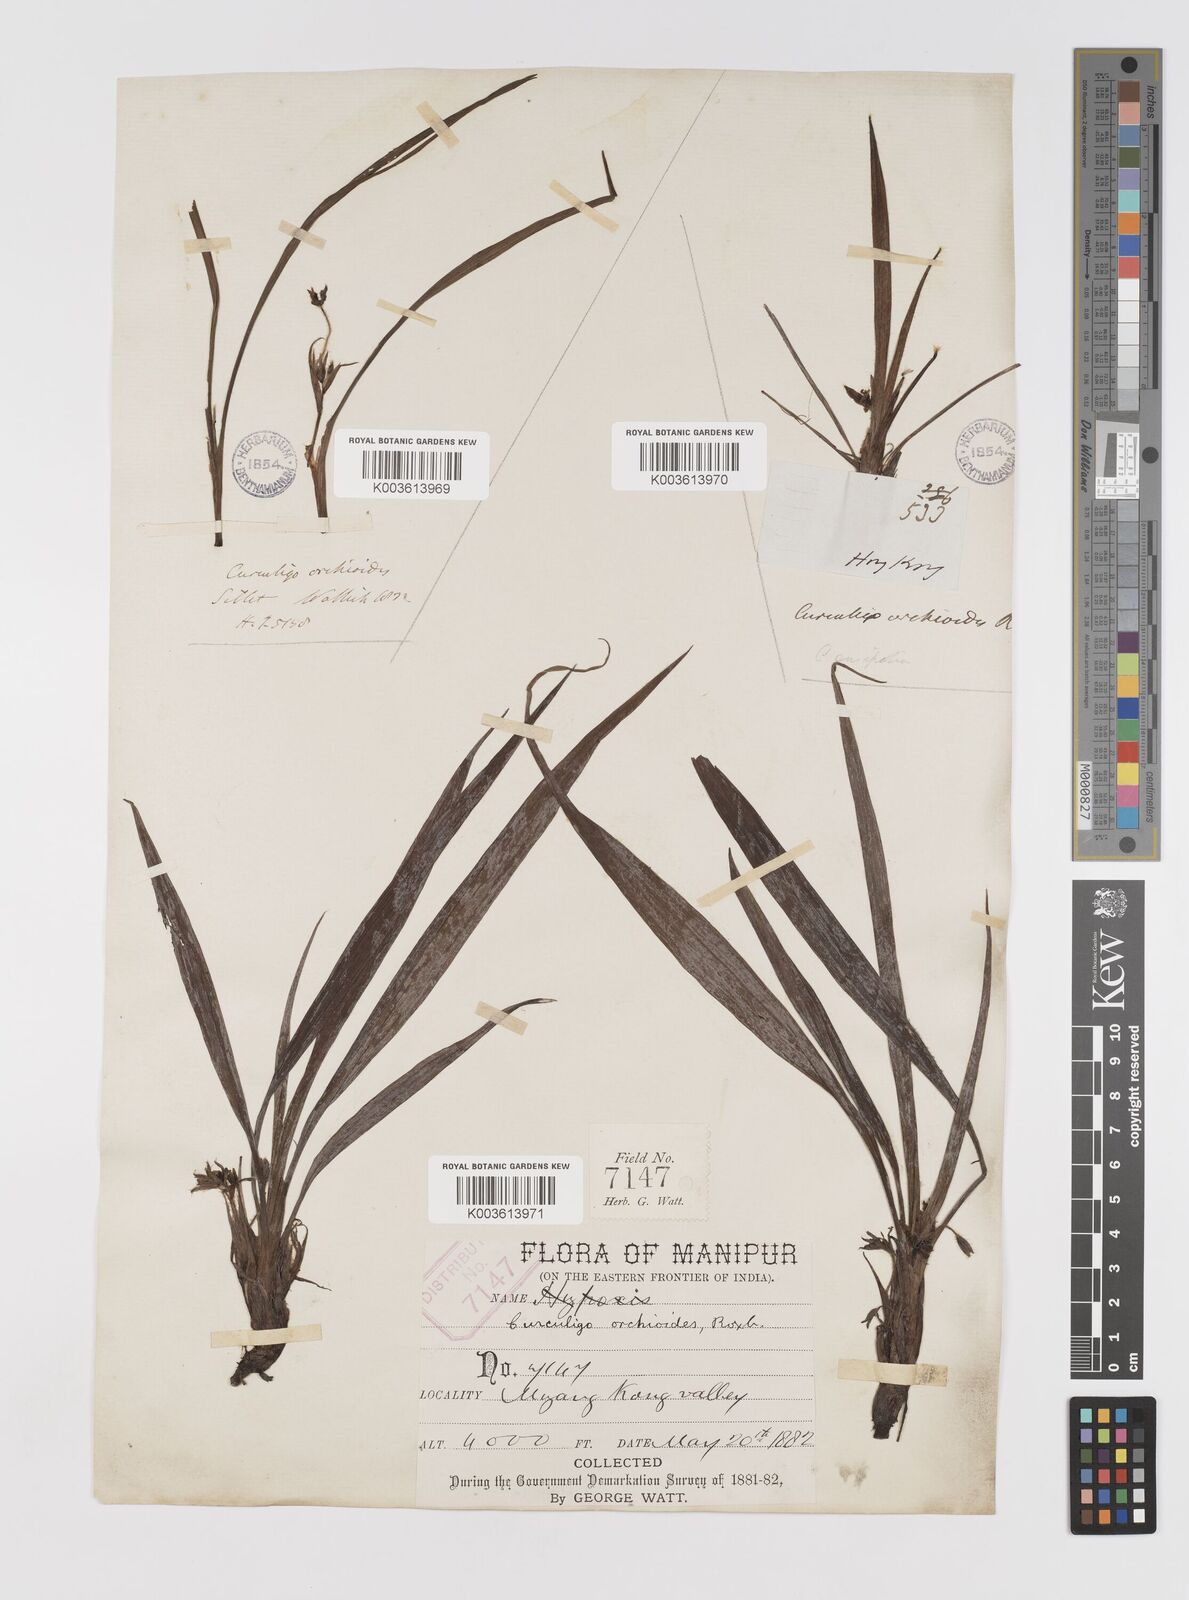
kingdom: Plantae
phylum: Tracheophyta
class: Liliopsida
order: Asparagales
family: Hypoxidaceae
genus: Curculigo
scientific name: Curculigo orchioides
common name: Golden eye-grass
